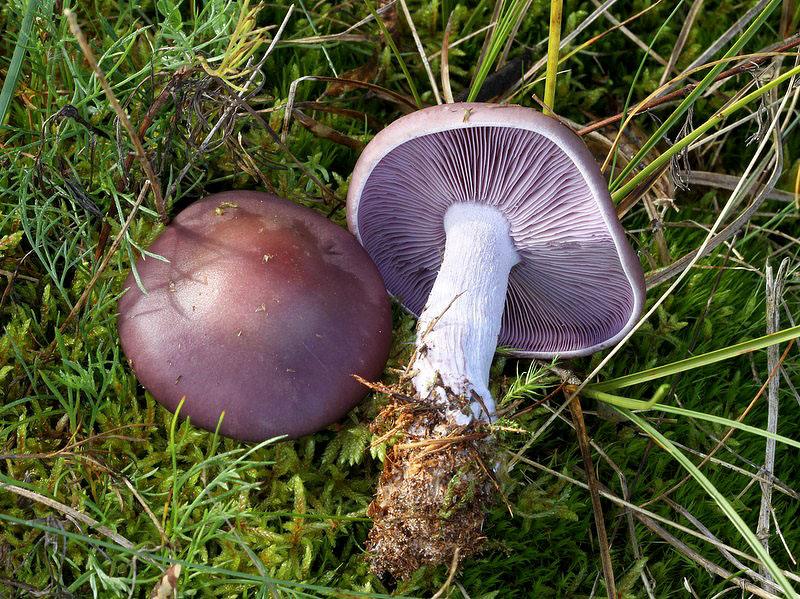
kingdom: Fungi
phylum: Basidiomycota
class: Agaricomycetes
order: Agaricales
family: Tricholomataceae
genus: Lepista
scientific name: Lepista nuda
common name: violet hekseringshat
